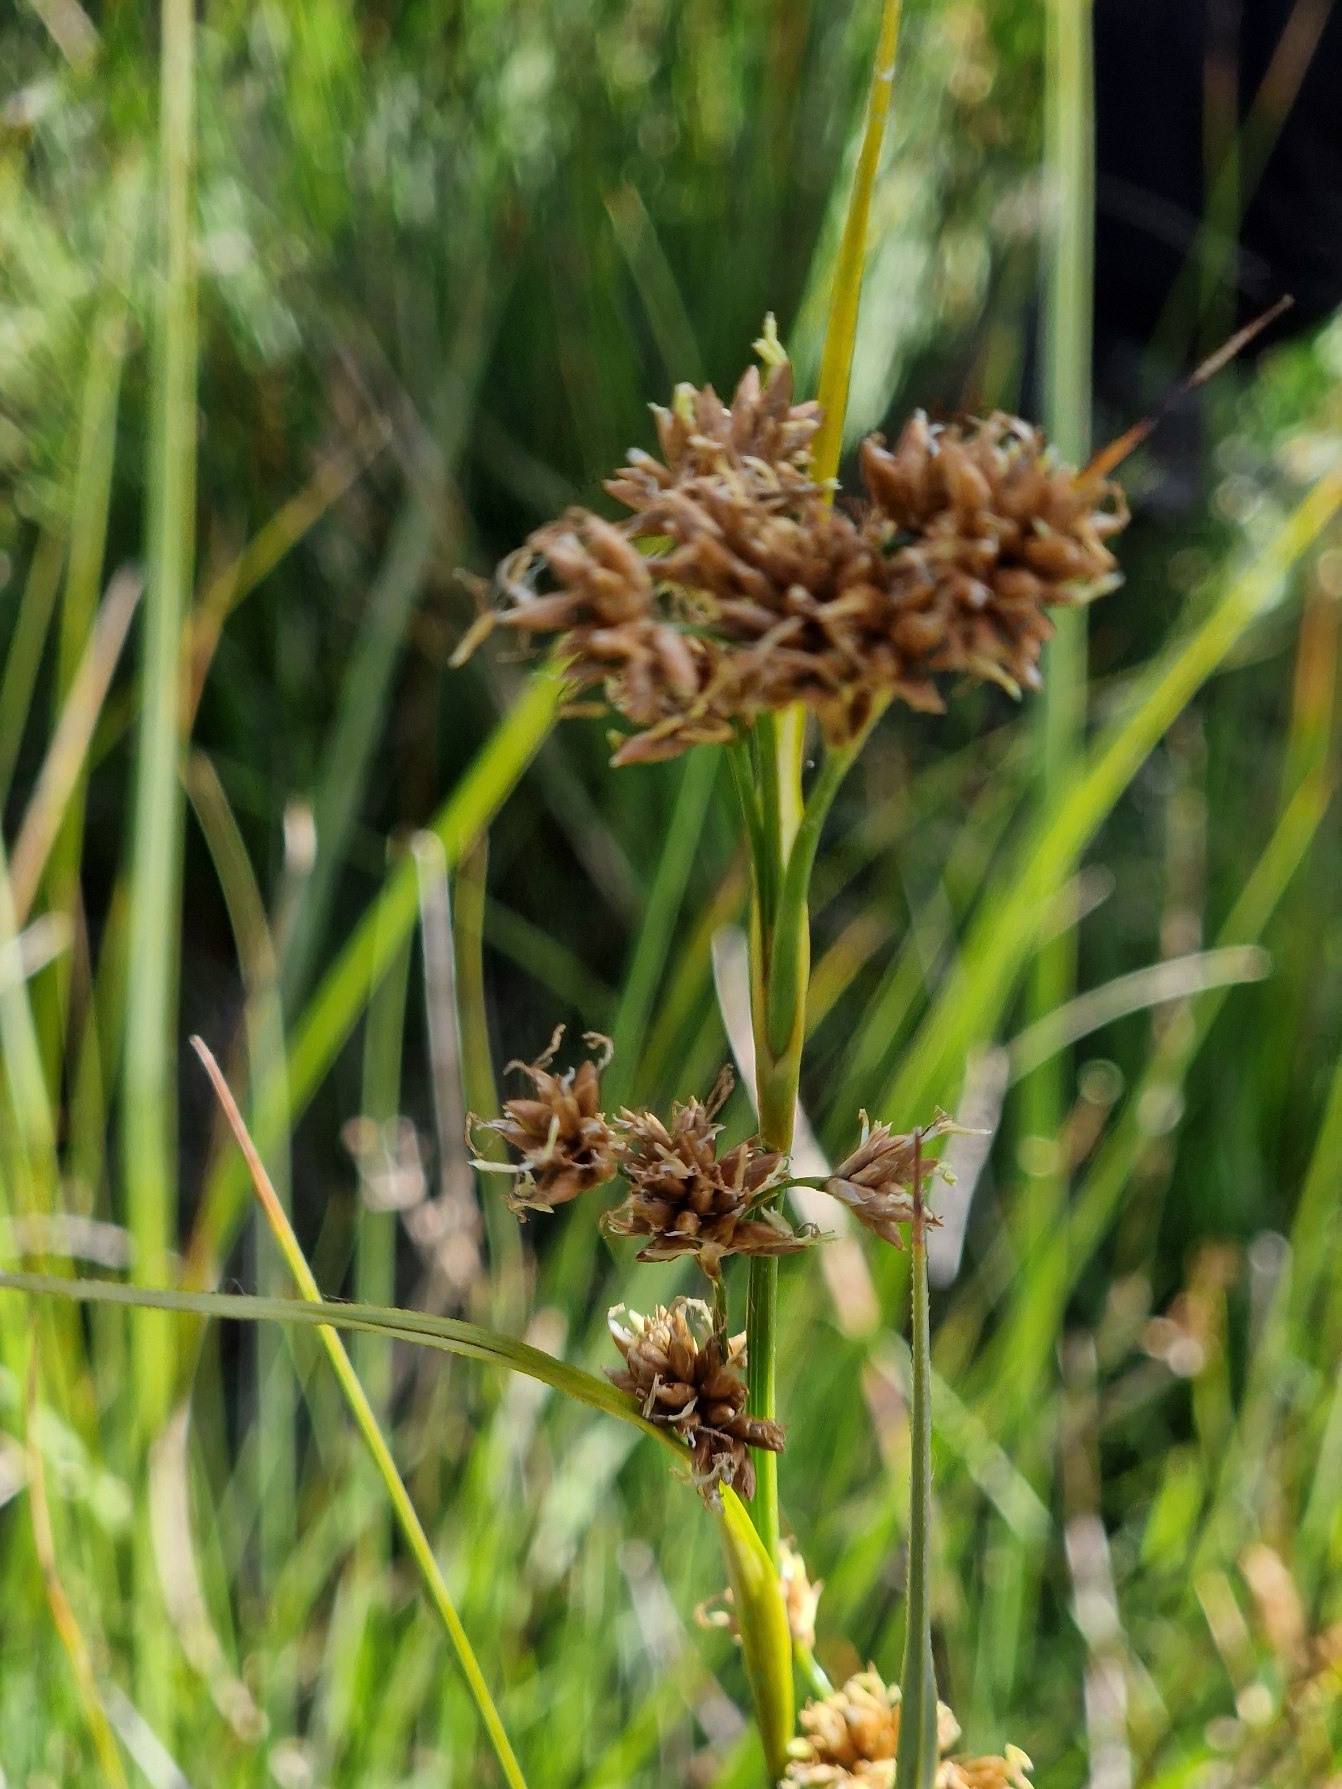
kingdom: Plantae
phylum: Tracheophyta
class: Liliopsida
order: Poales
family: Cyperaceae
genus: Cladium
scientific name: Cladium mariscus
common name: Hvas avneknippe
